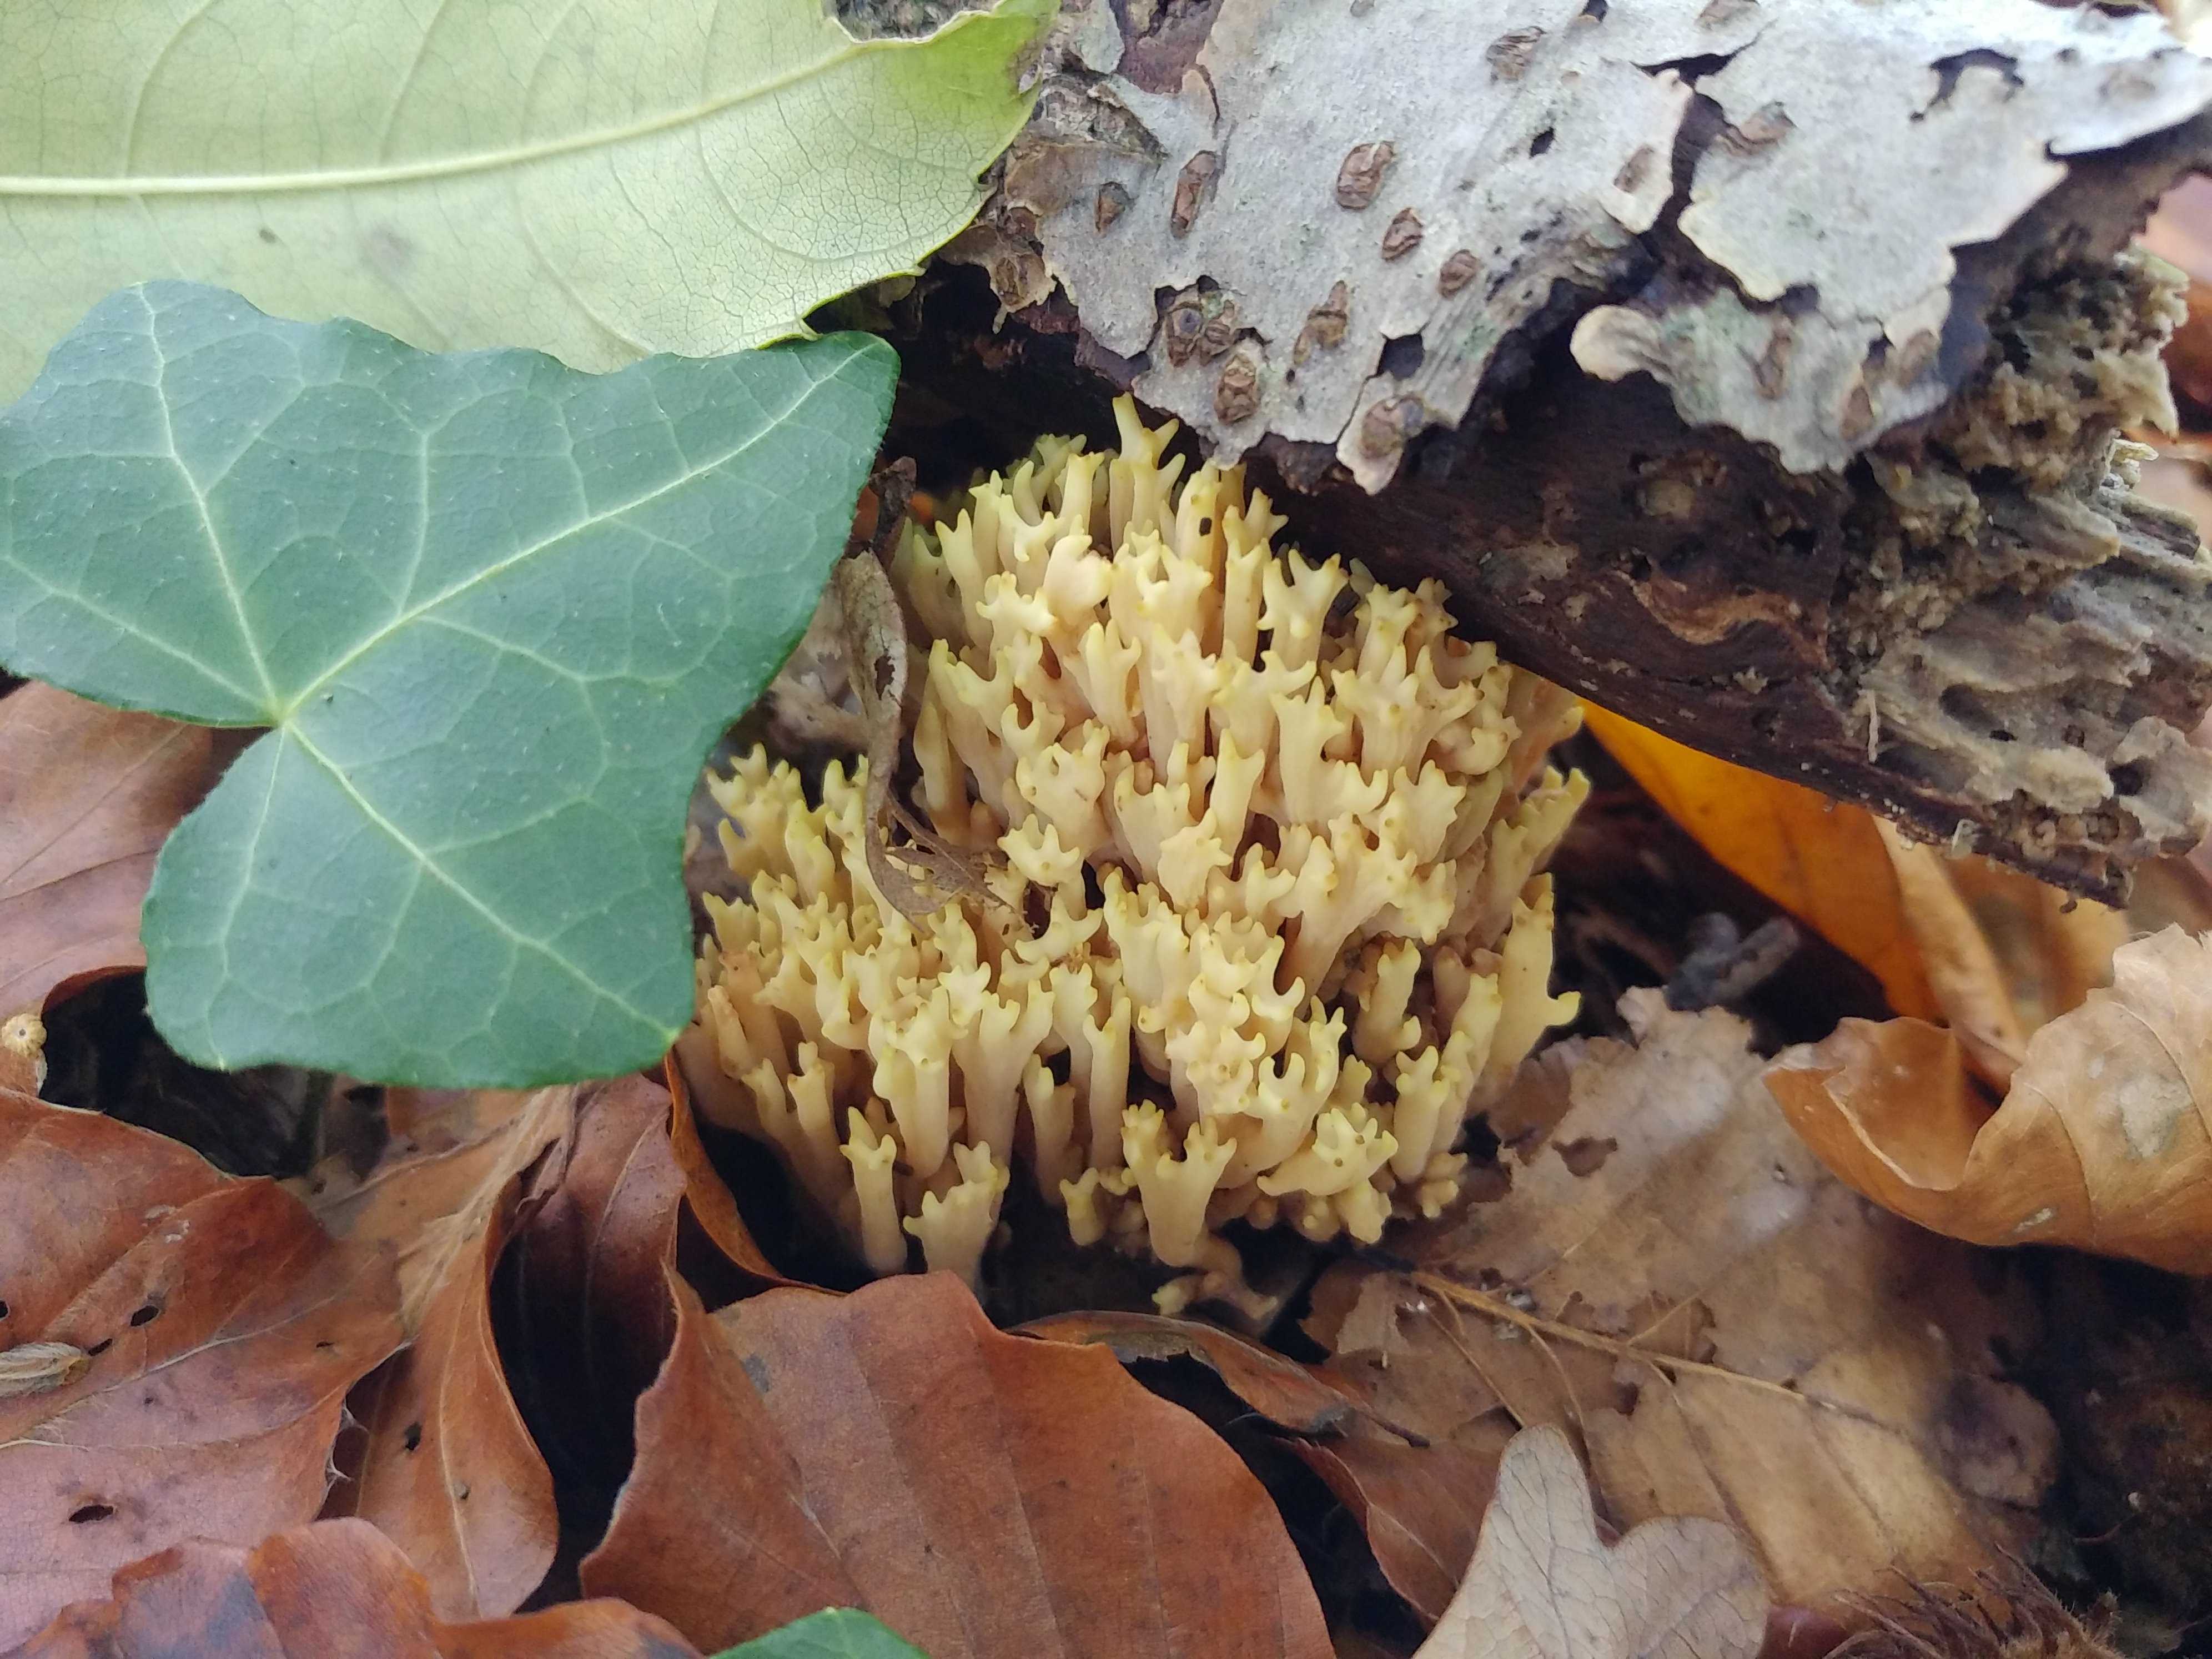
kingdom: Fungi
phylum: Basidiomycota
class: Agaricomycetes
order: Gomphales
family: Gomphaceae
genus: Ramaria
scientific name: Ramaria stricta
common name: rank koralsvamp
